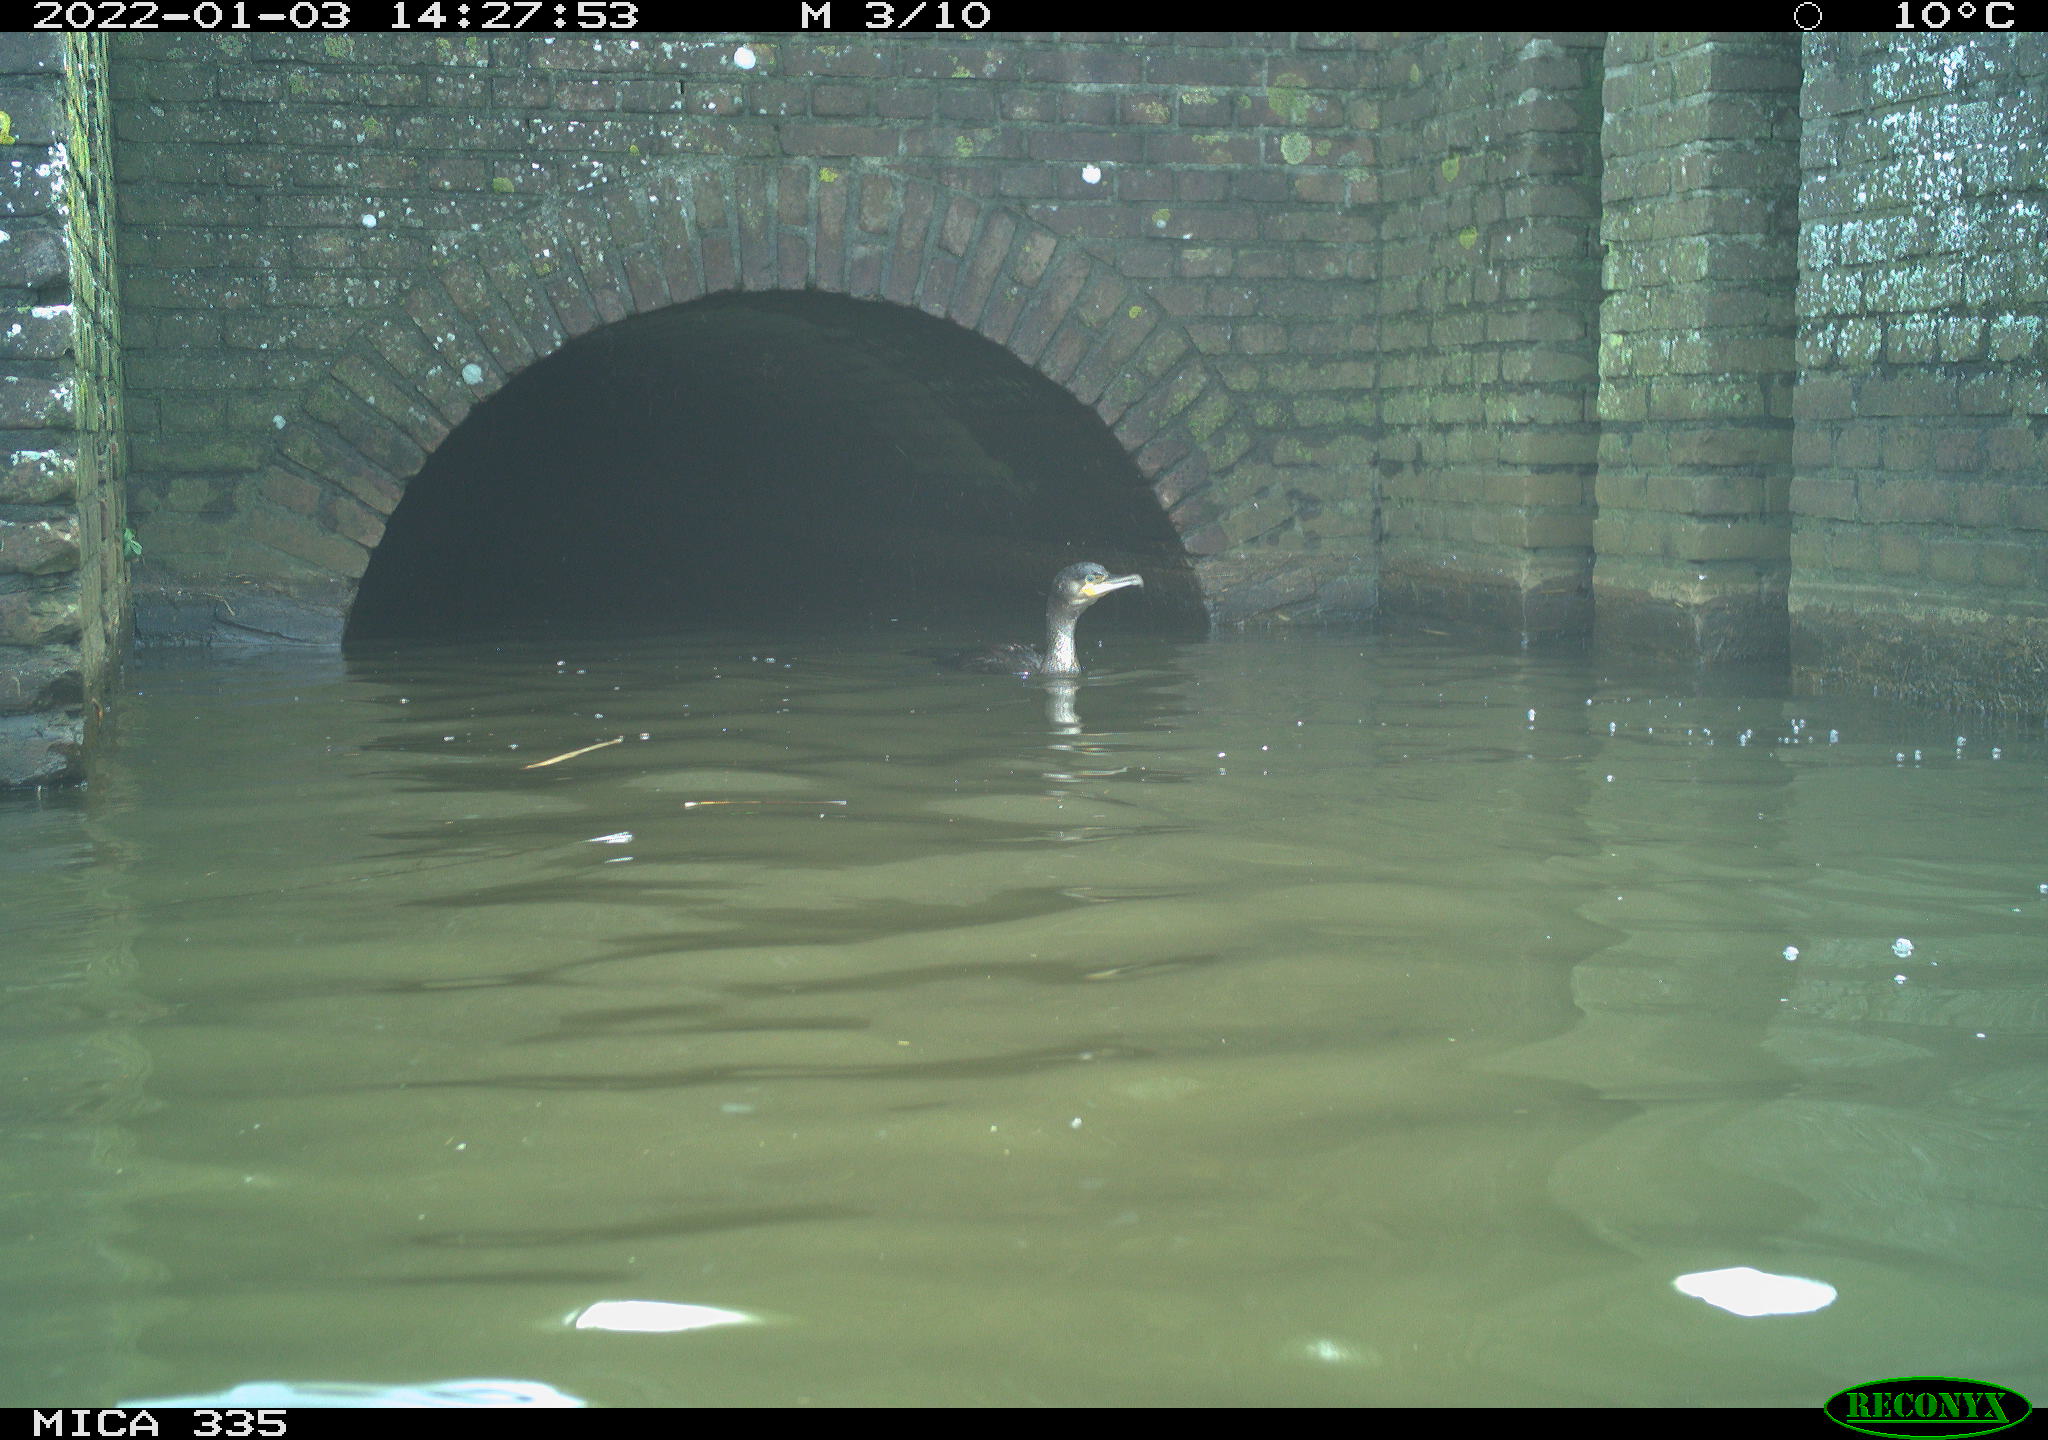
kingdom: Animalia
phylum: Chordata
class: Aves
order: Suliformes
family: Phalacrocoracidae
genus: Phalacrocorax
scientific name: Phalacrocorax carbo
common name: Great cormorant
